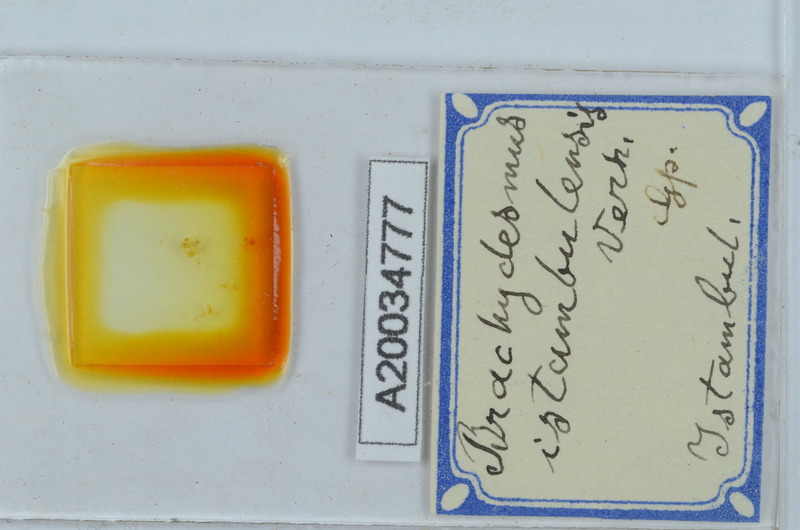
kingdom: Animalia
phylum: Arthropoda
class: Diplopoda
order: Polydesmida
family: Polydesmidae
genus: Brachydesmus
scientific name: Brachydesmus istanbulensis
